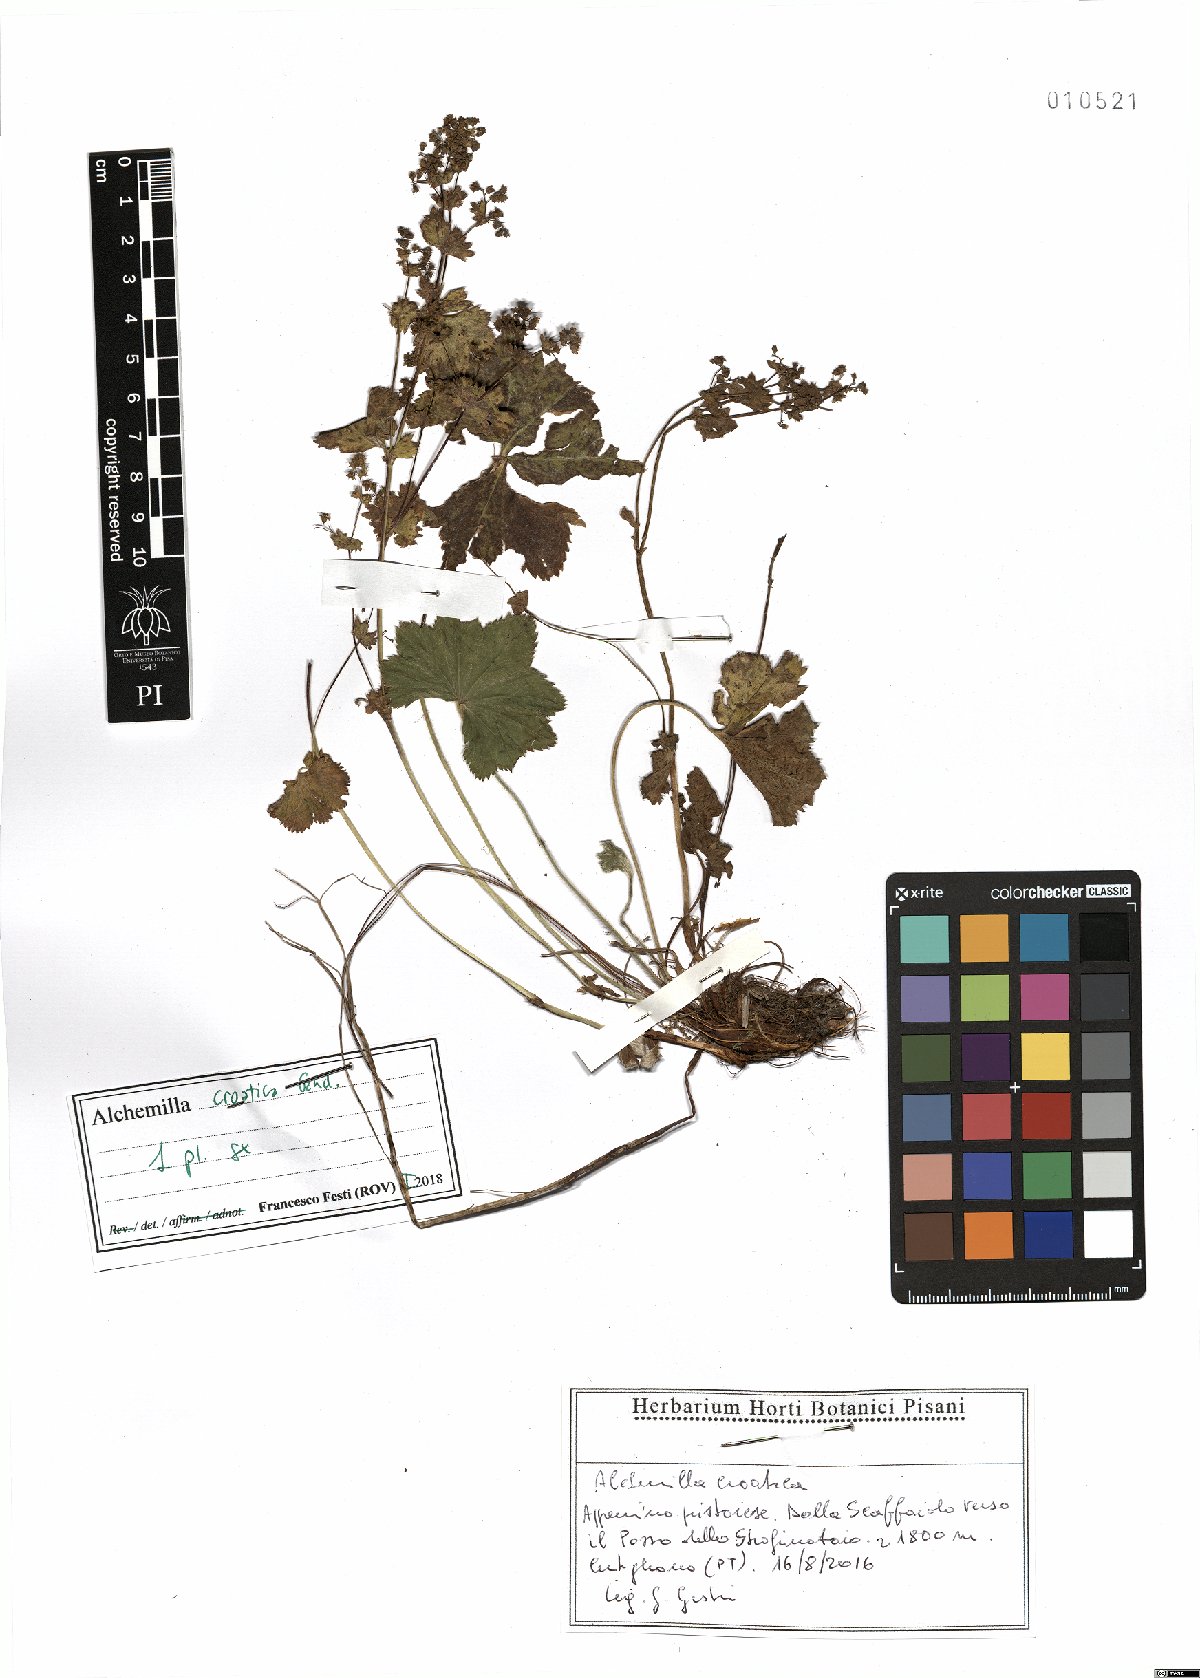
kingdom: Plantae
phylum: Tracheophyta
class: Magnoliopsida
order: Rosales
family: Rosaceae
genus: Alchemilla
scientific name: Alchemilla croatica
